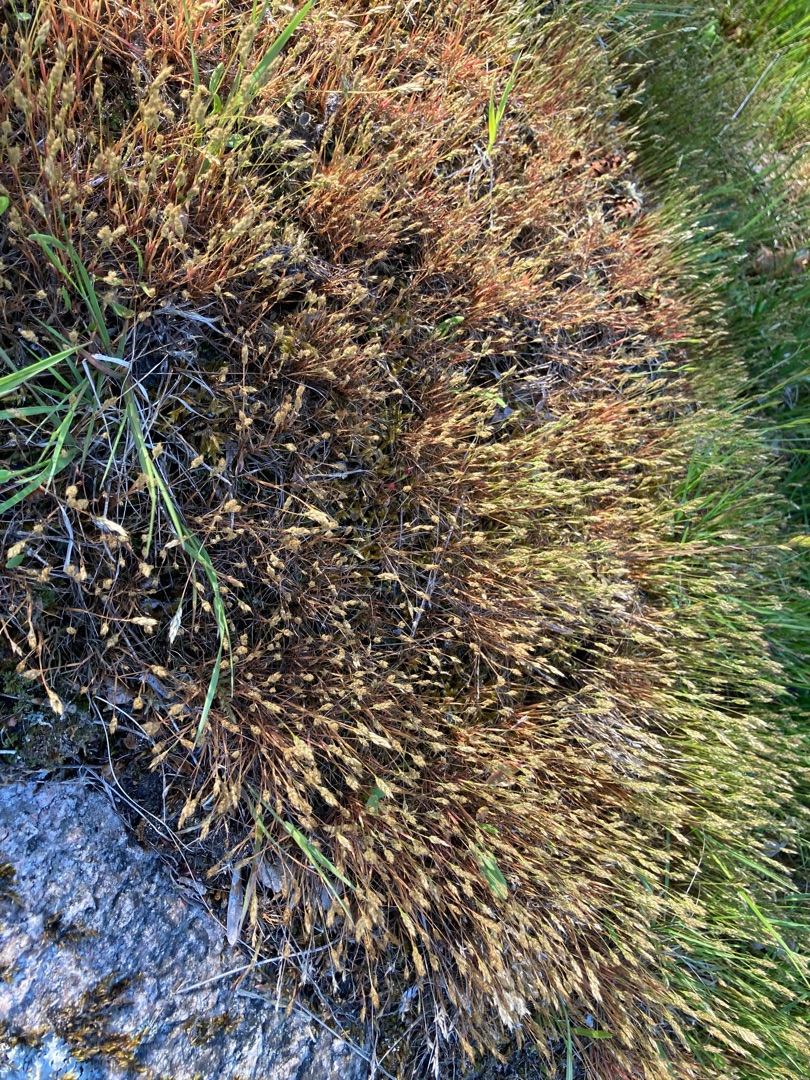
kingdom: Plantae
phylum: Tracheophyta
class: Liliopsida
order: Poales
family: Poaceae
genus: Aira
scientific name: Aira praecox
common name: Tidlig dværgbunke
